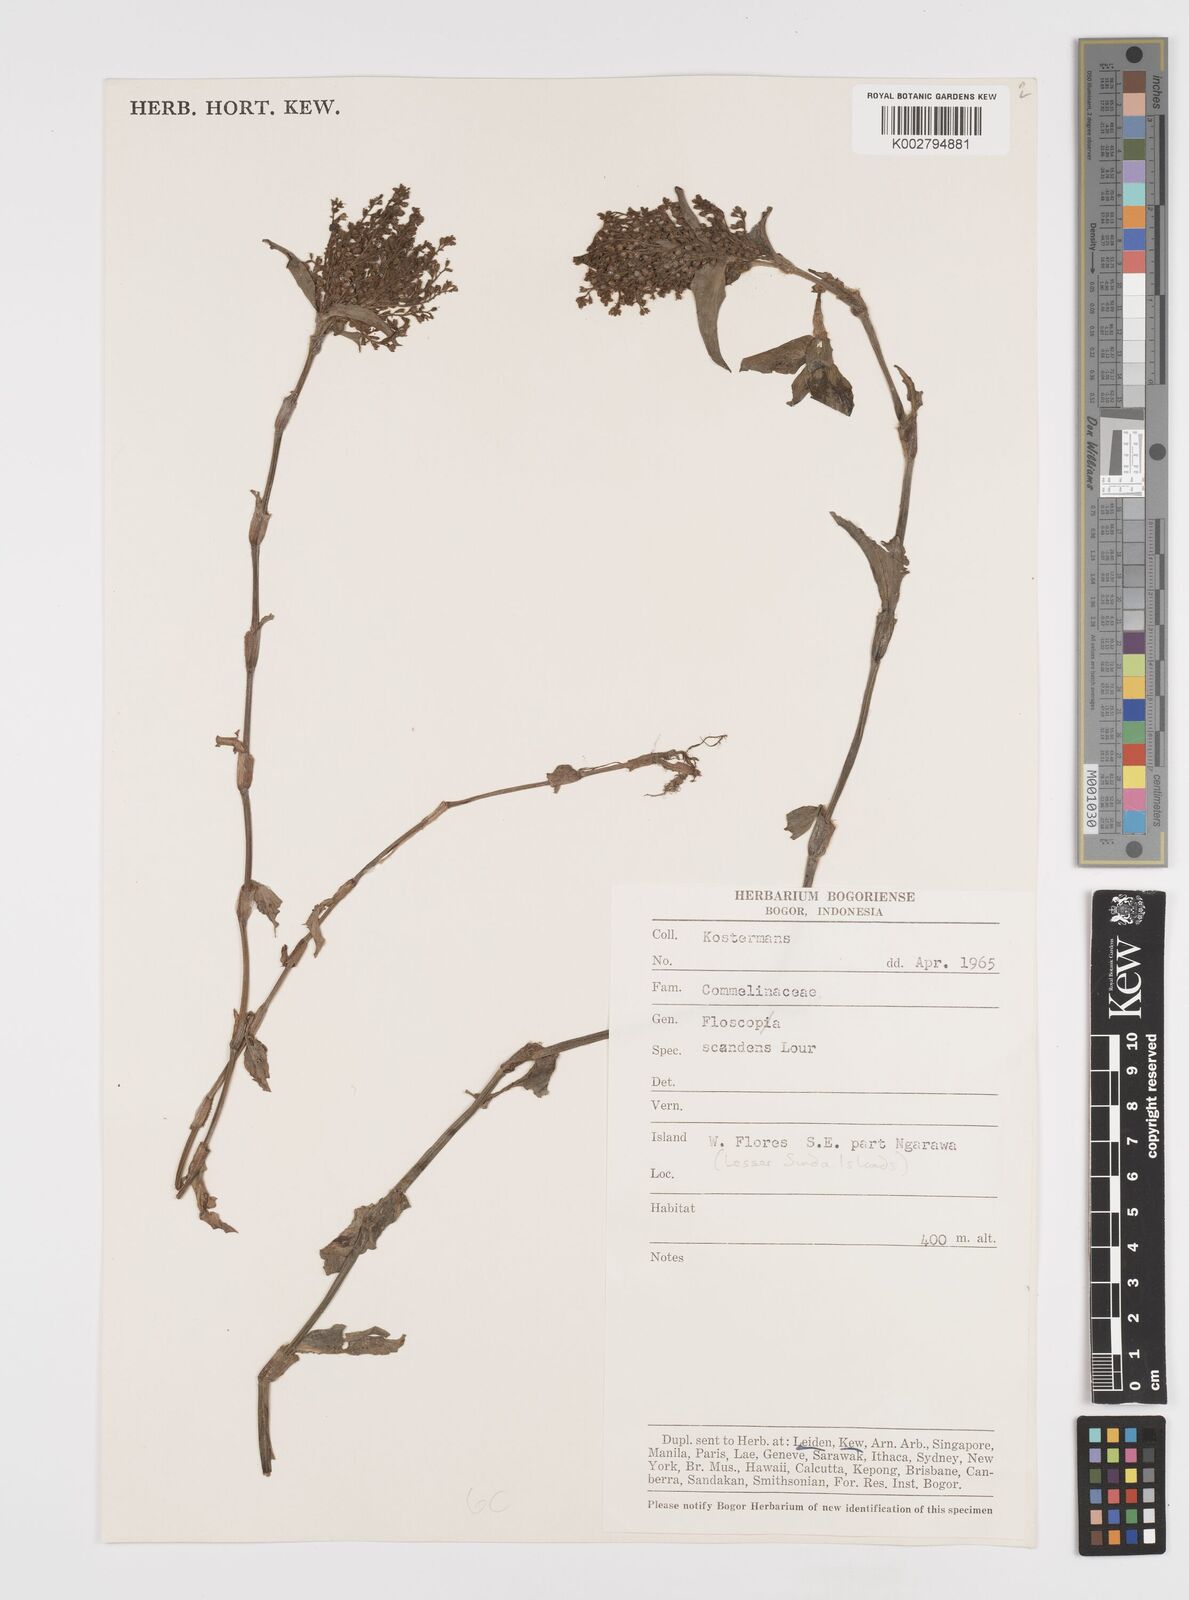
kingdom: Plantae
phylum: Tracheophyta
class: Liliopsida
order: Commelinales
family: Commelinaceae
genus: Floscopa
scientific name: Floscopa scandens
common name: Climbing flower cup
